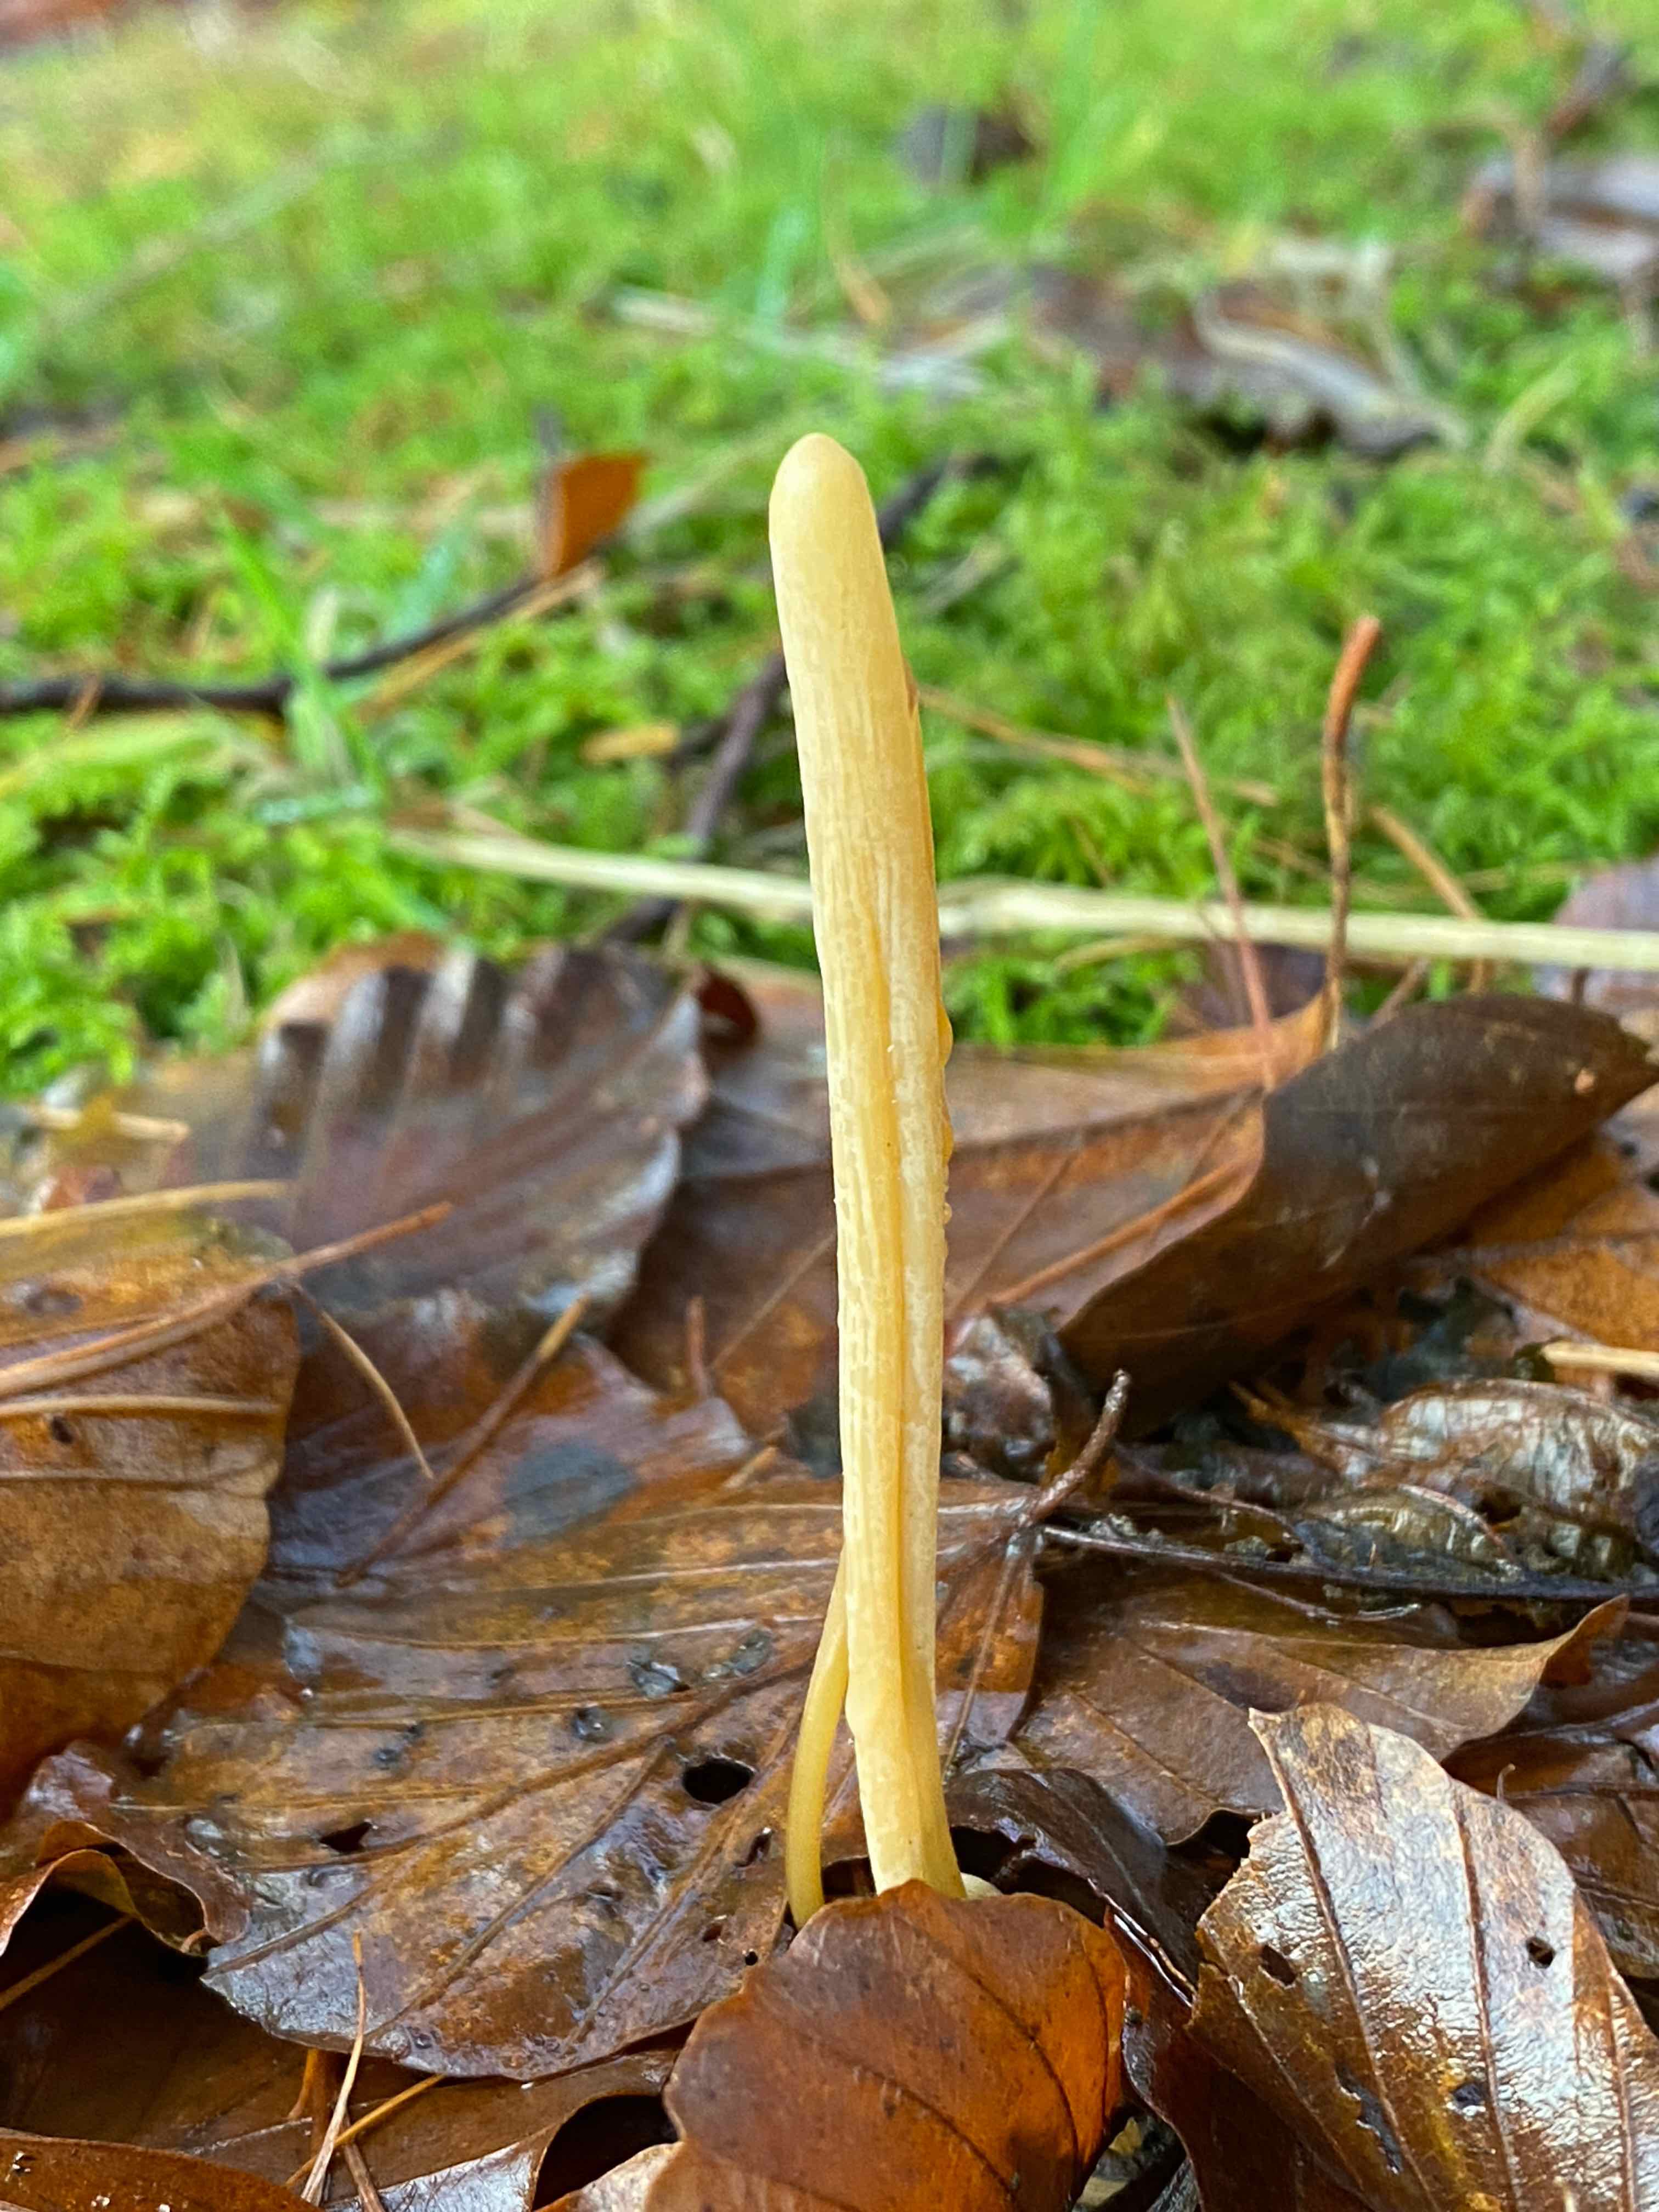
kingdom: Fungi
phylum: Basidiomycota
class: Agaricomycetes
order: Agaricales
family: Typhulaceae
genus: Typhula
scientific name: Typhula fistulosa
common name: pibet rørkølle
